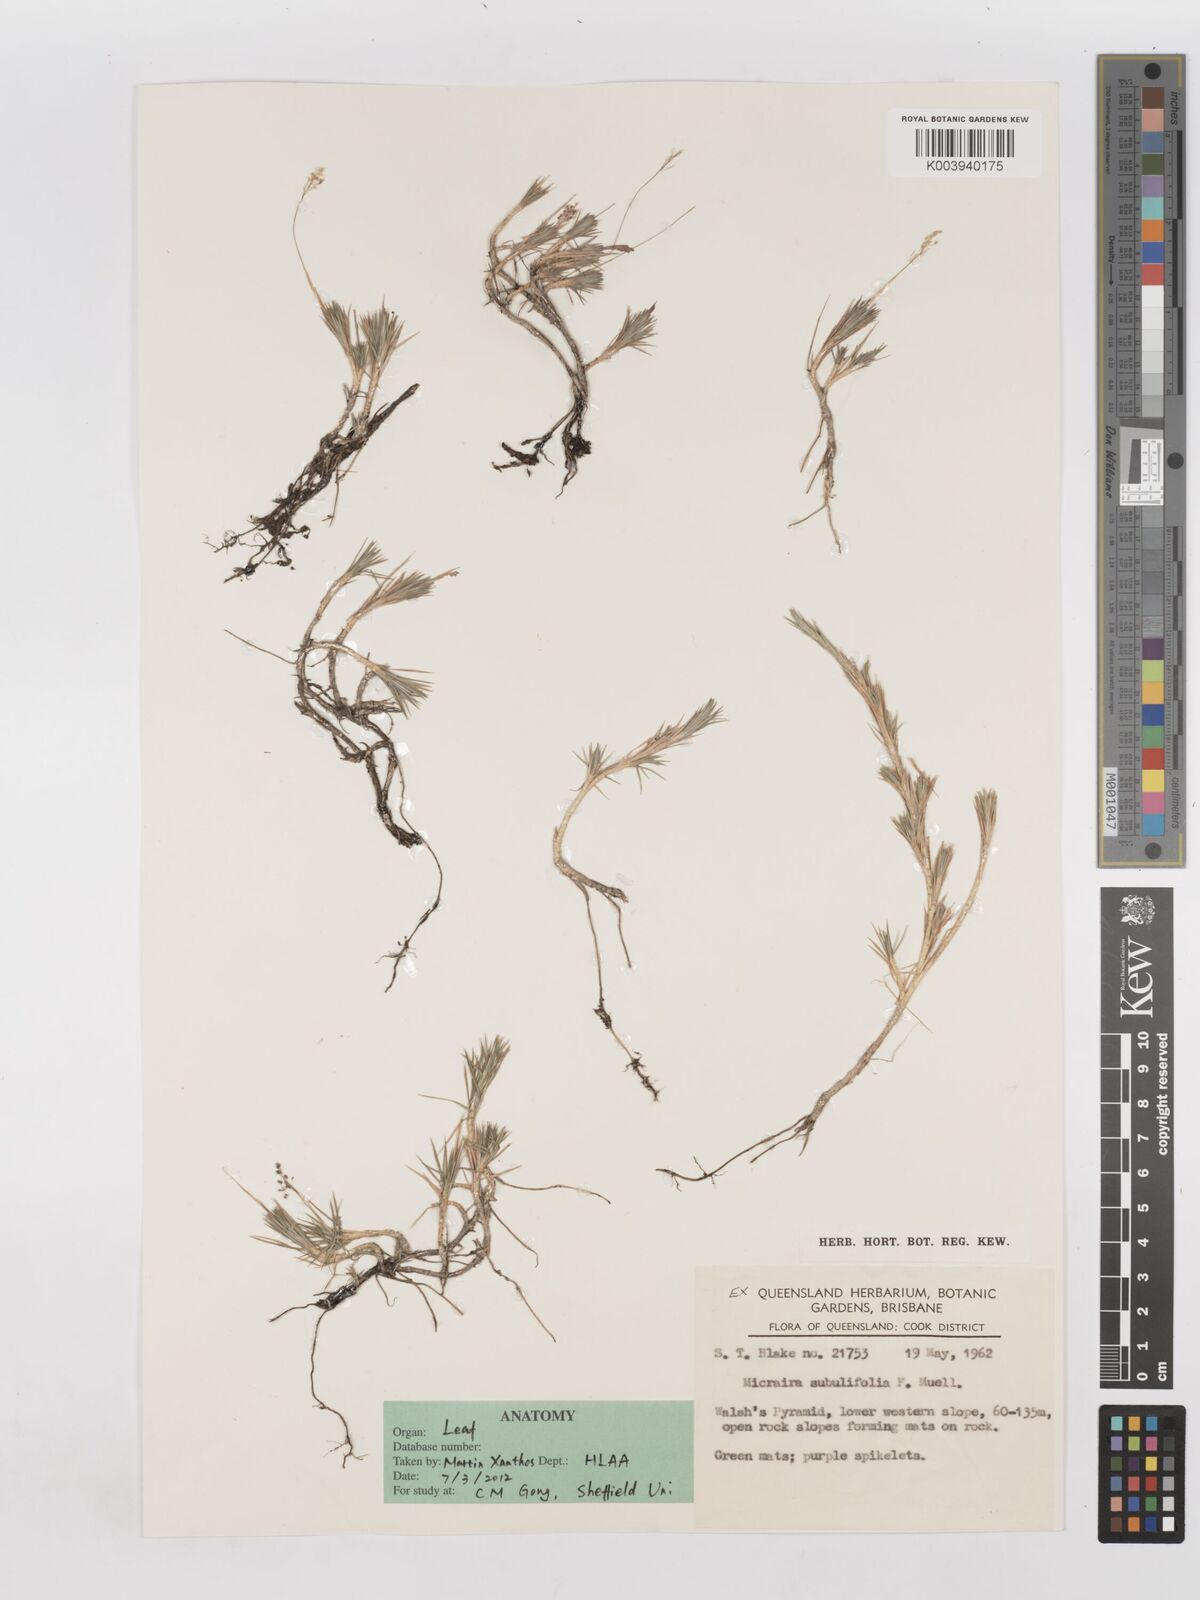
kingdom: Plantae
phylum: Tracheophyta
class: Liliopsida
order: Poales
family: Poaceae
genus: Micraira
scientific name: Micraira subulifolia
